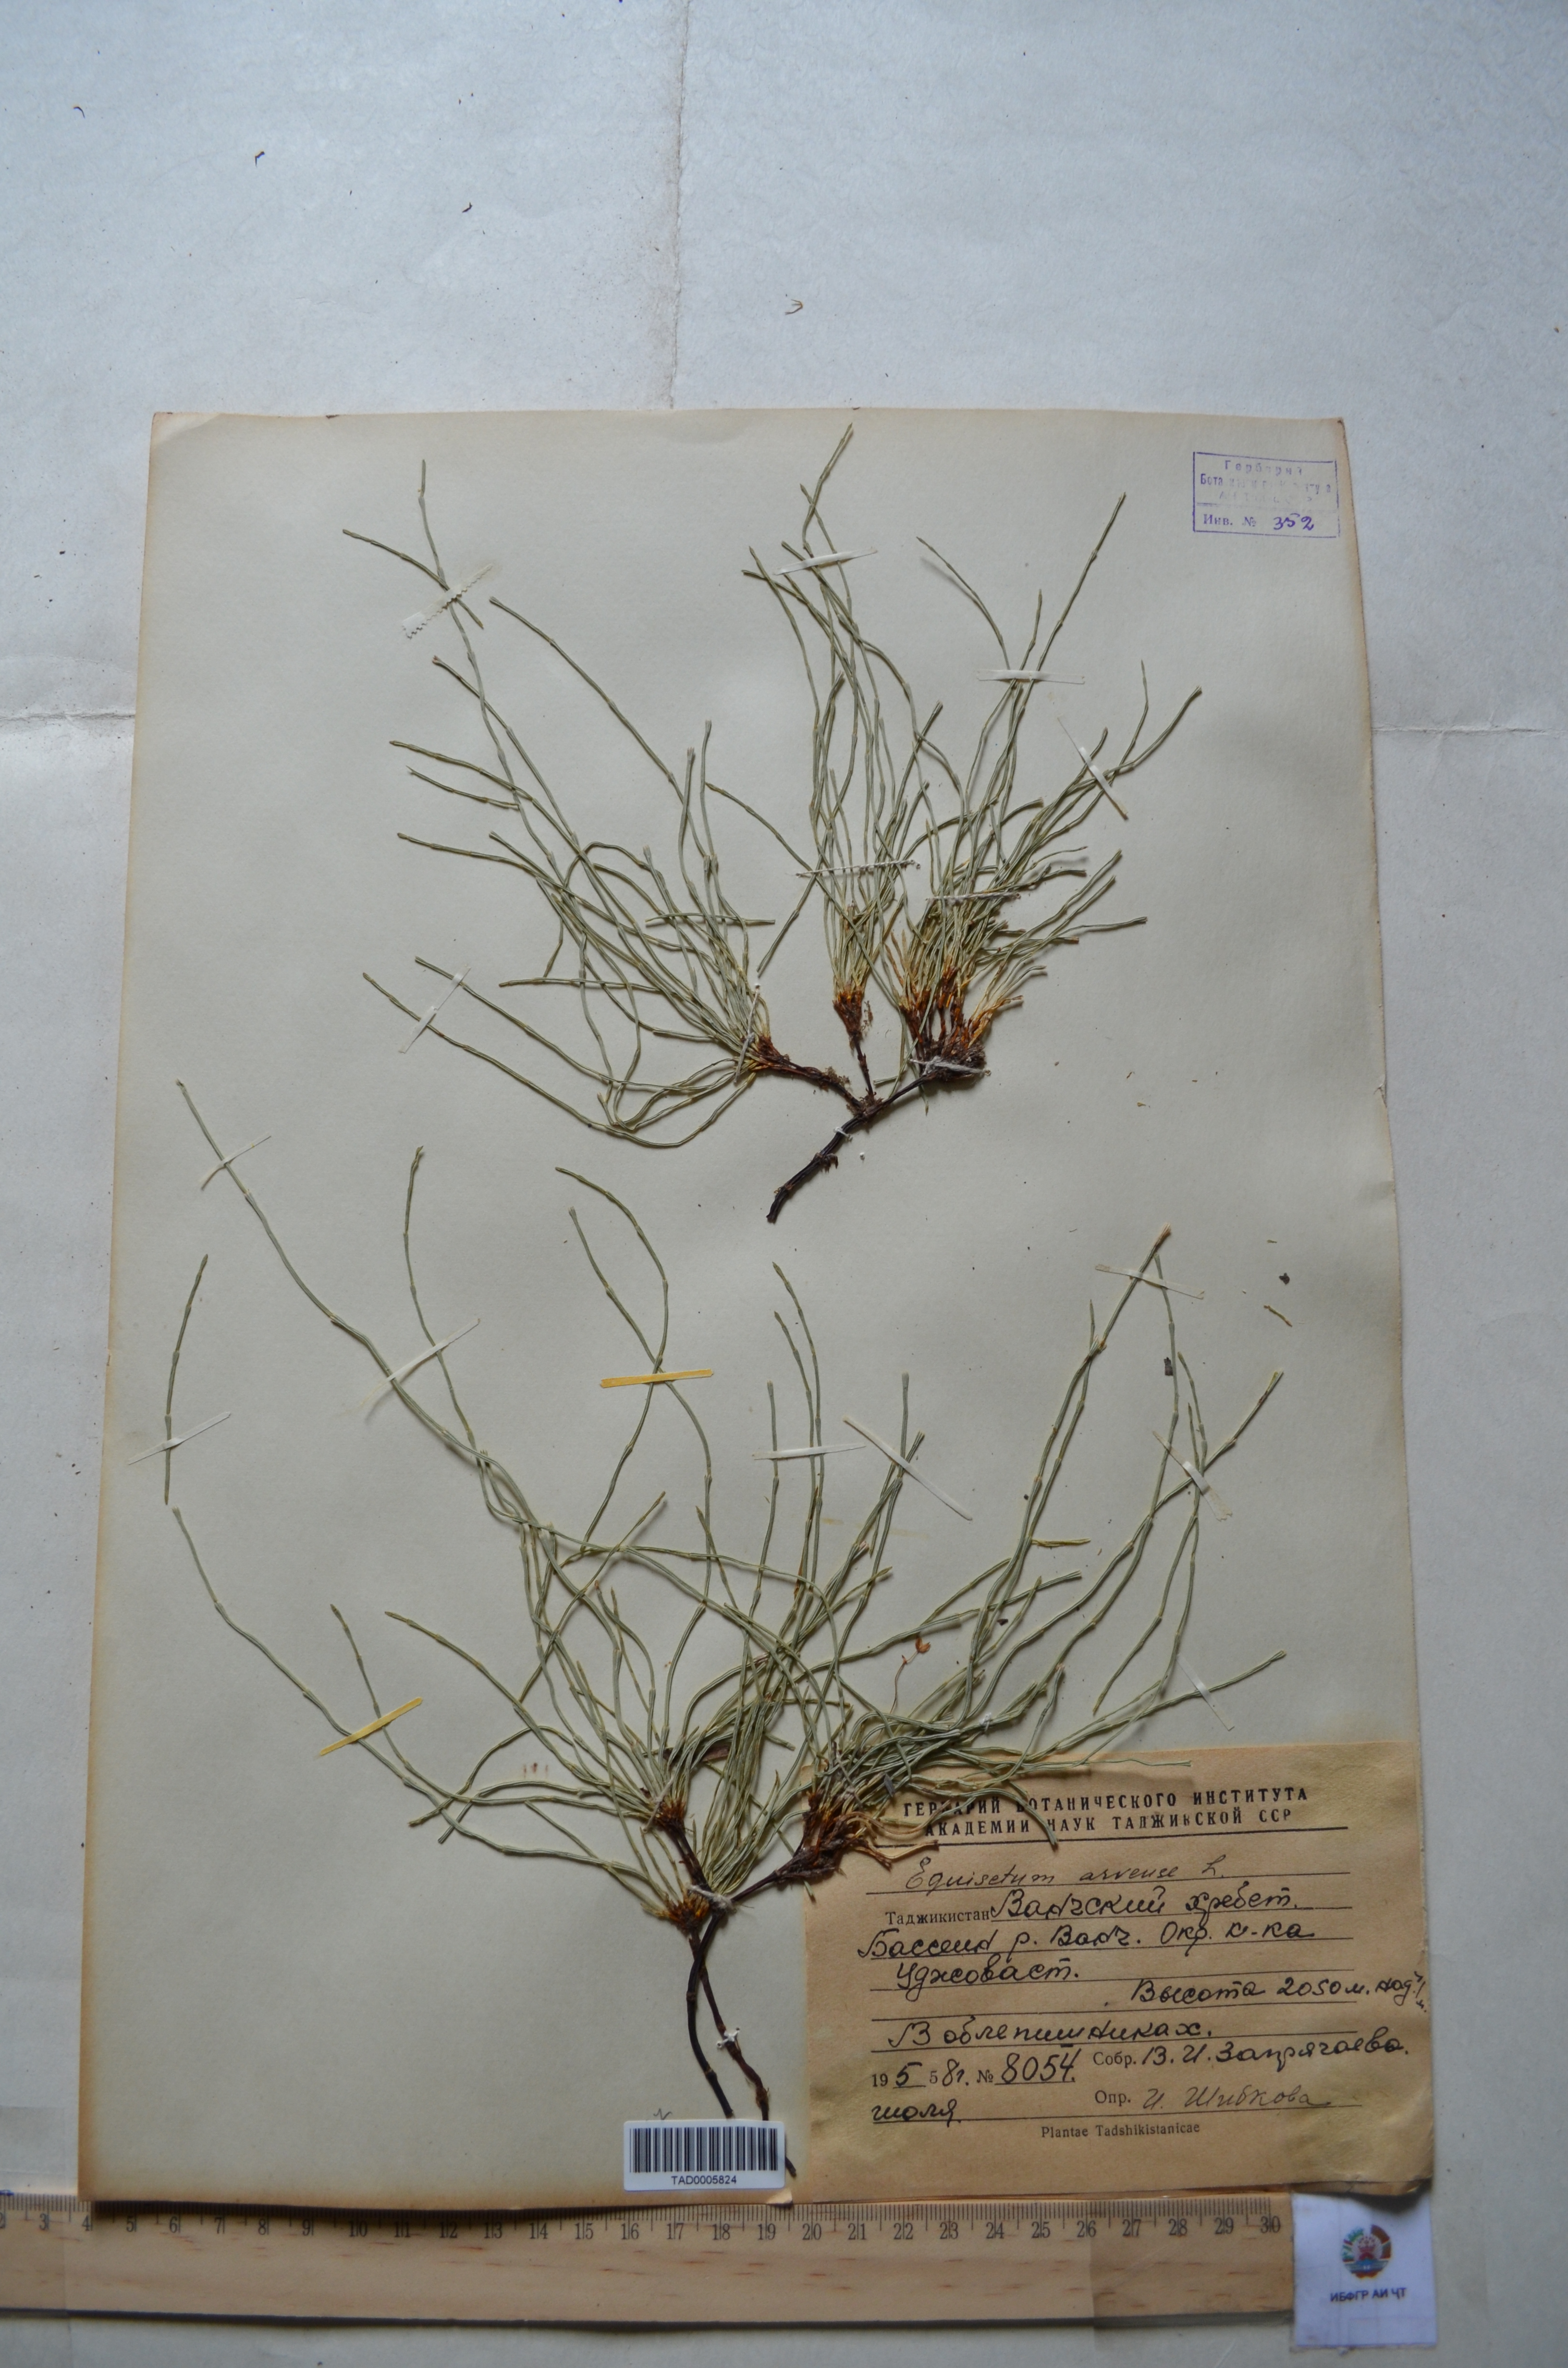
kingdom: Plantae
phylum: Tracheophyta
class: Polypodiopsida
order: Equisetales
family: Equisetaceae
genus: Equisetum
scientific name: Equisetum arvense
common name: Field horsetail
